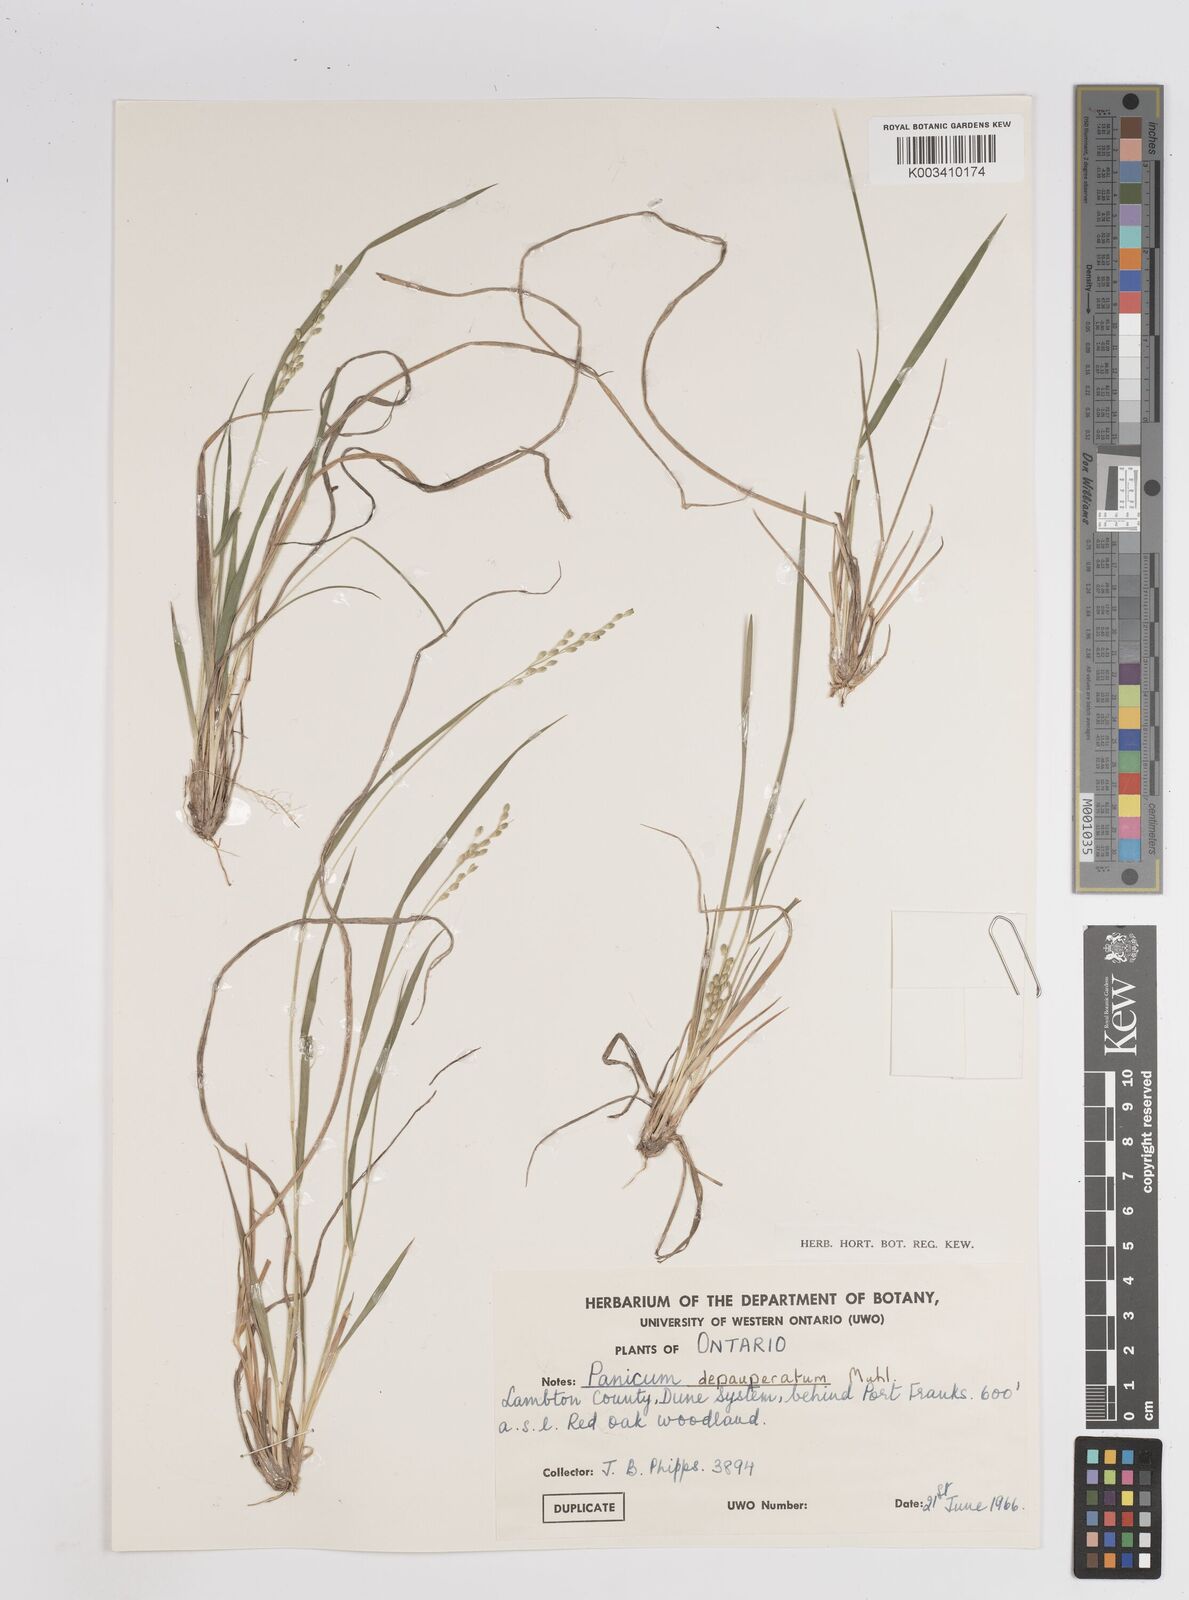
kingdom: Plantae
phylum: Tracheophyta
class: Liliopsida
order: Poales
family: Poaceae
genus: Dichanthelium
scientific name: Dichanthelium depauperatum
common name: Depauperate panicgrass
